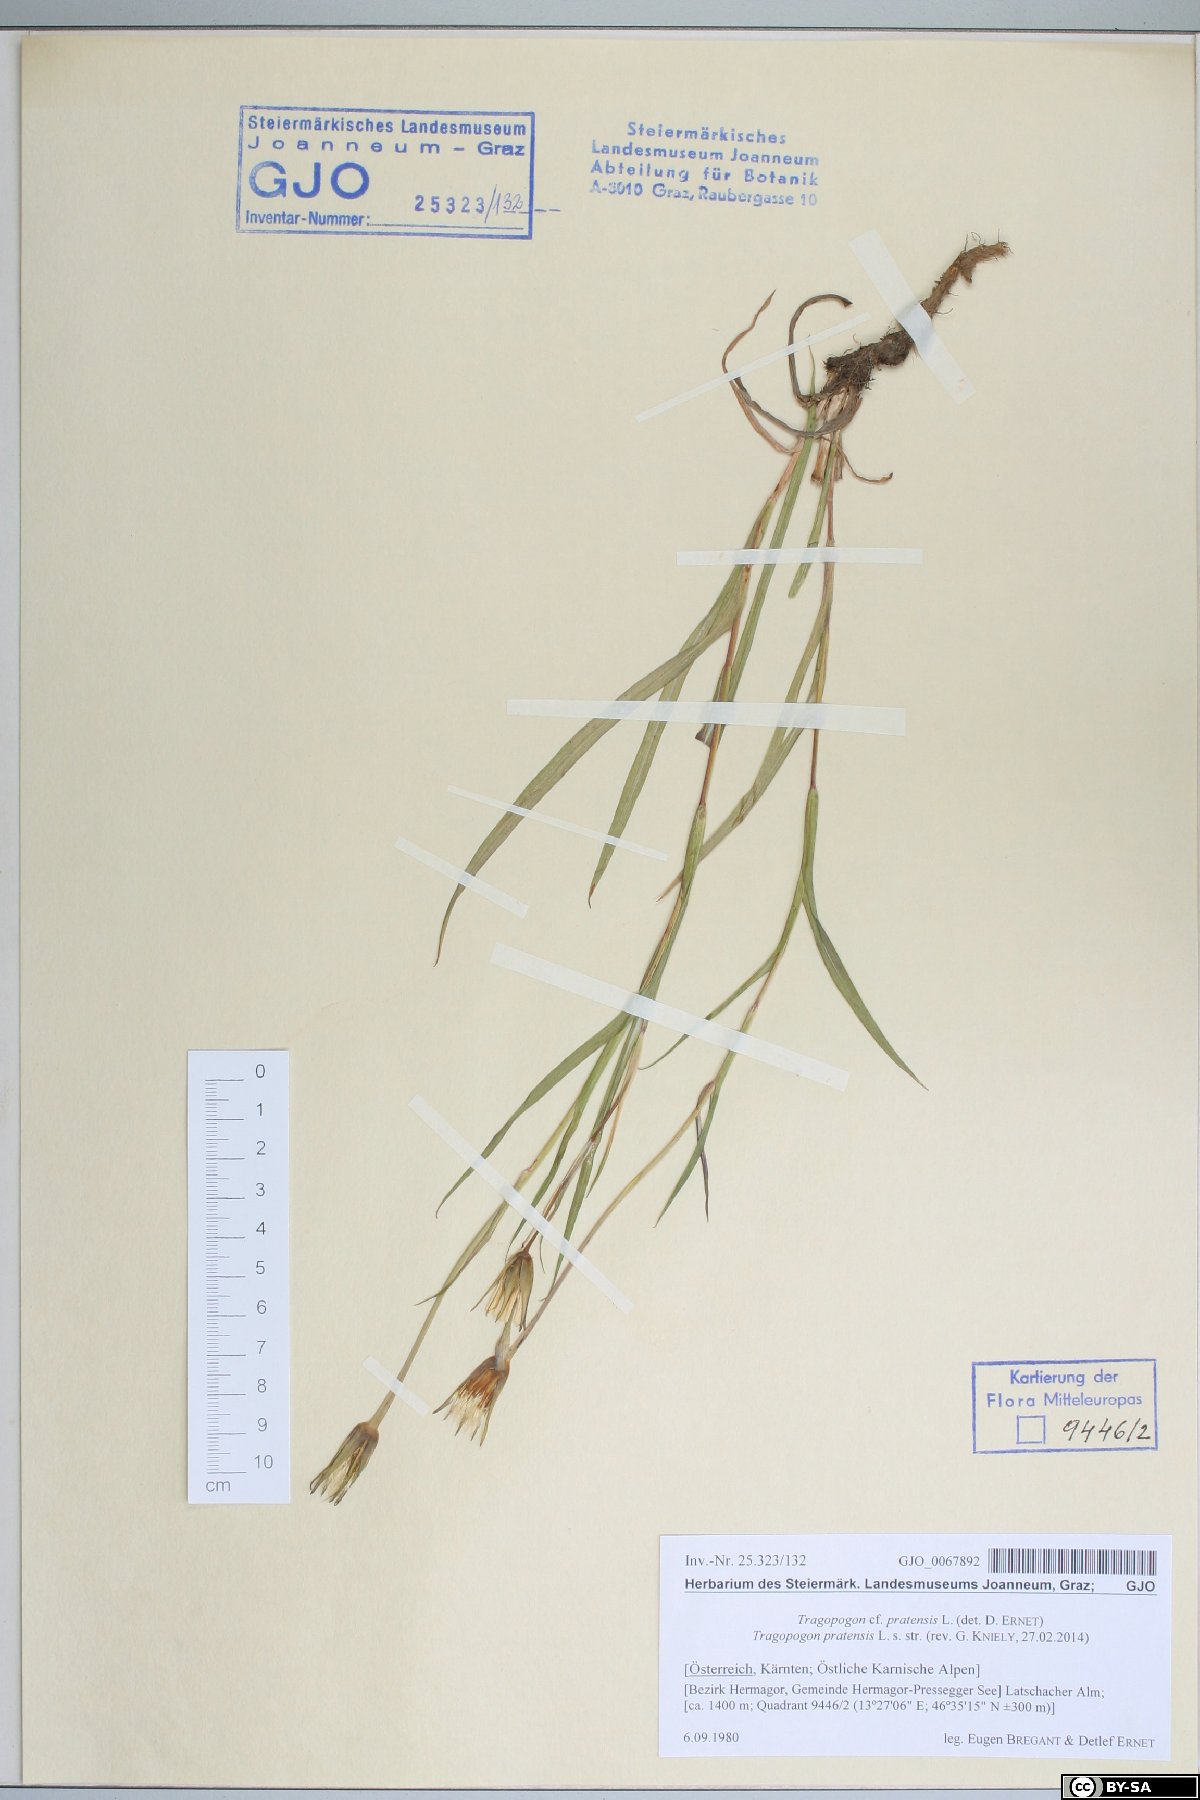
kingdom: Plantae
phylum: Tracheophyta
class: Magnoliopsida
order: Asterales
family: Asteraceae
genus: Tragopogon
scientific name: Tragopogon pratensis
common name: Goat's-beard
